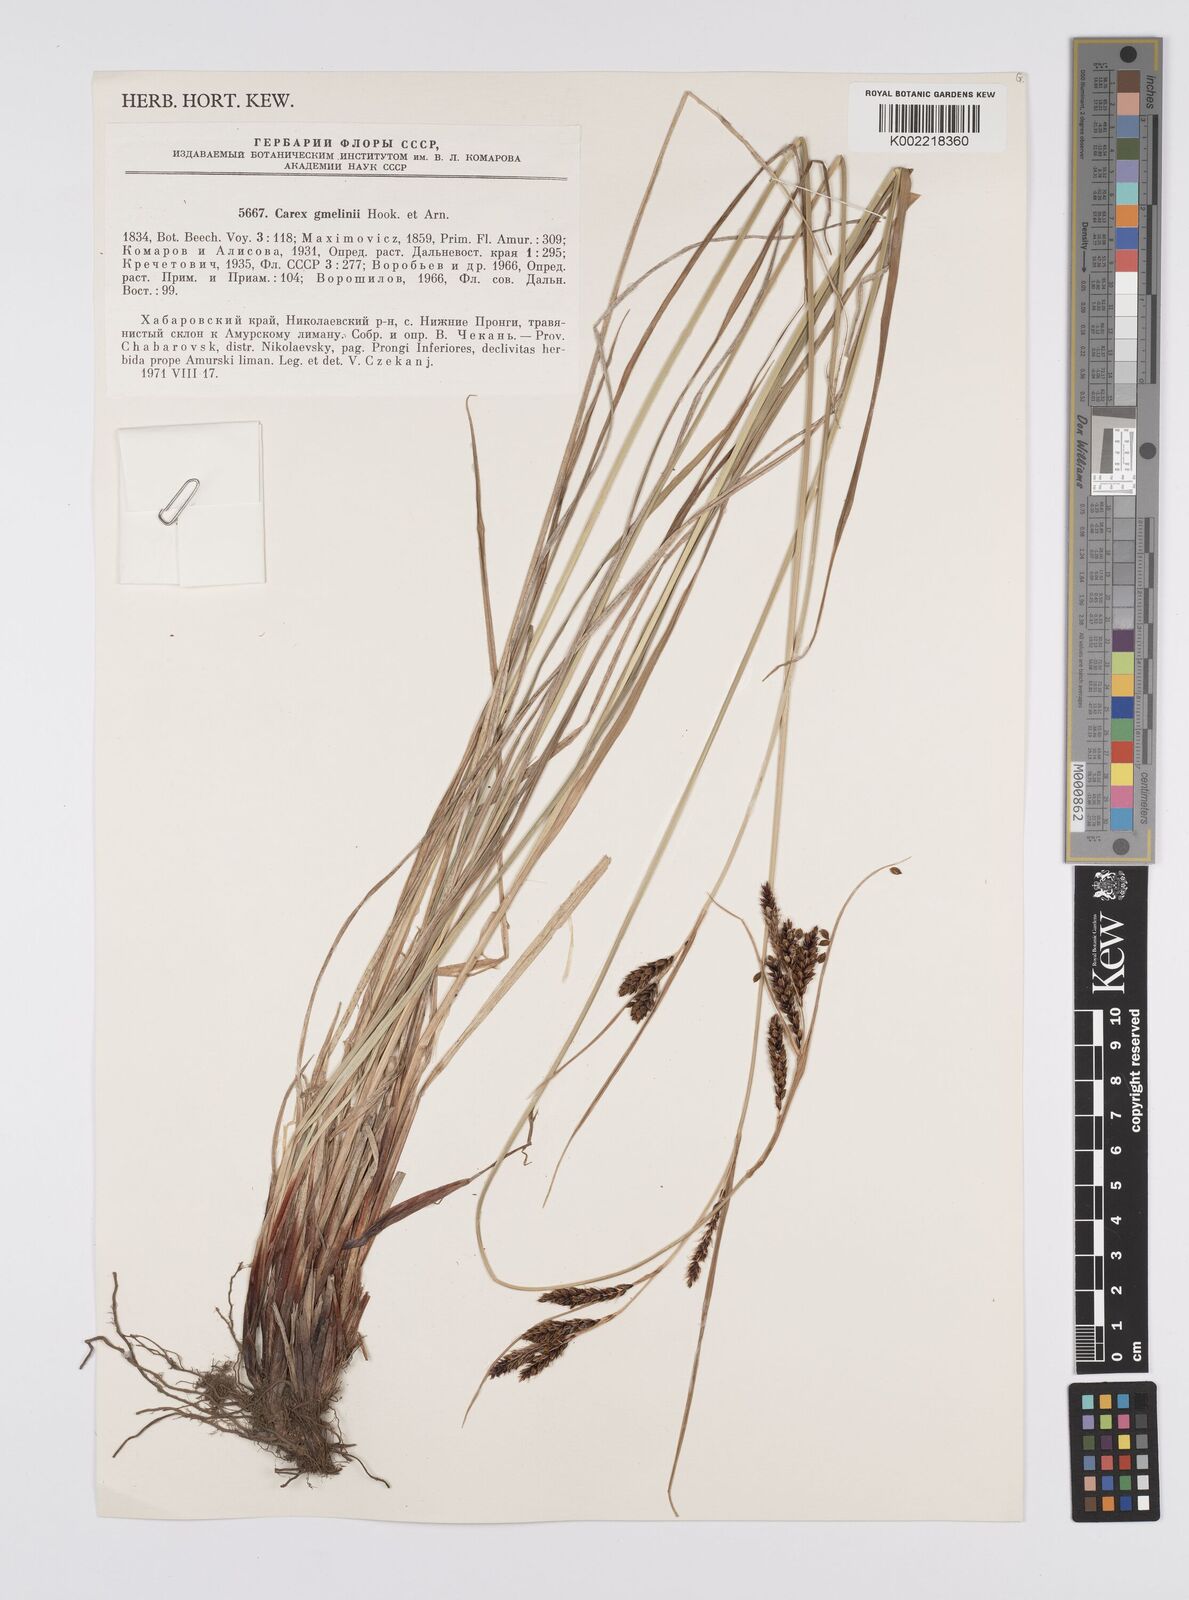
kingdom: Plantae
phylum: Tracheophyta
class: Liliopsida
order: Poales
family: Cyperaceae
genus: Carex
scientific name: Carex gmelinii
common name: Gmelin's sedge
